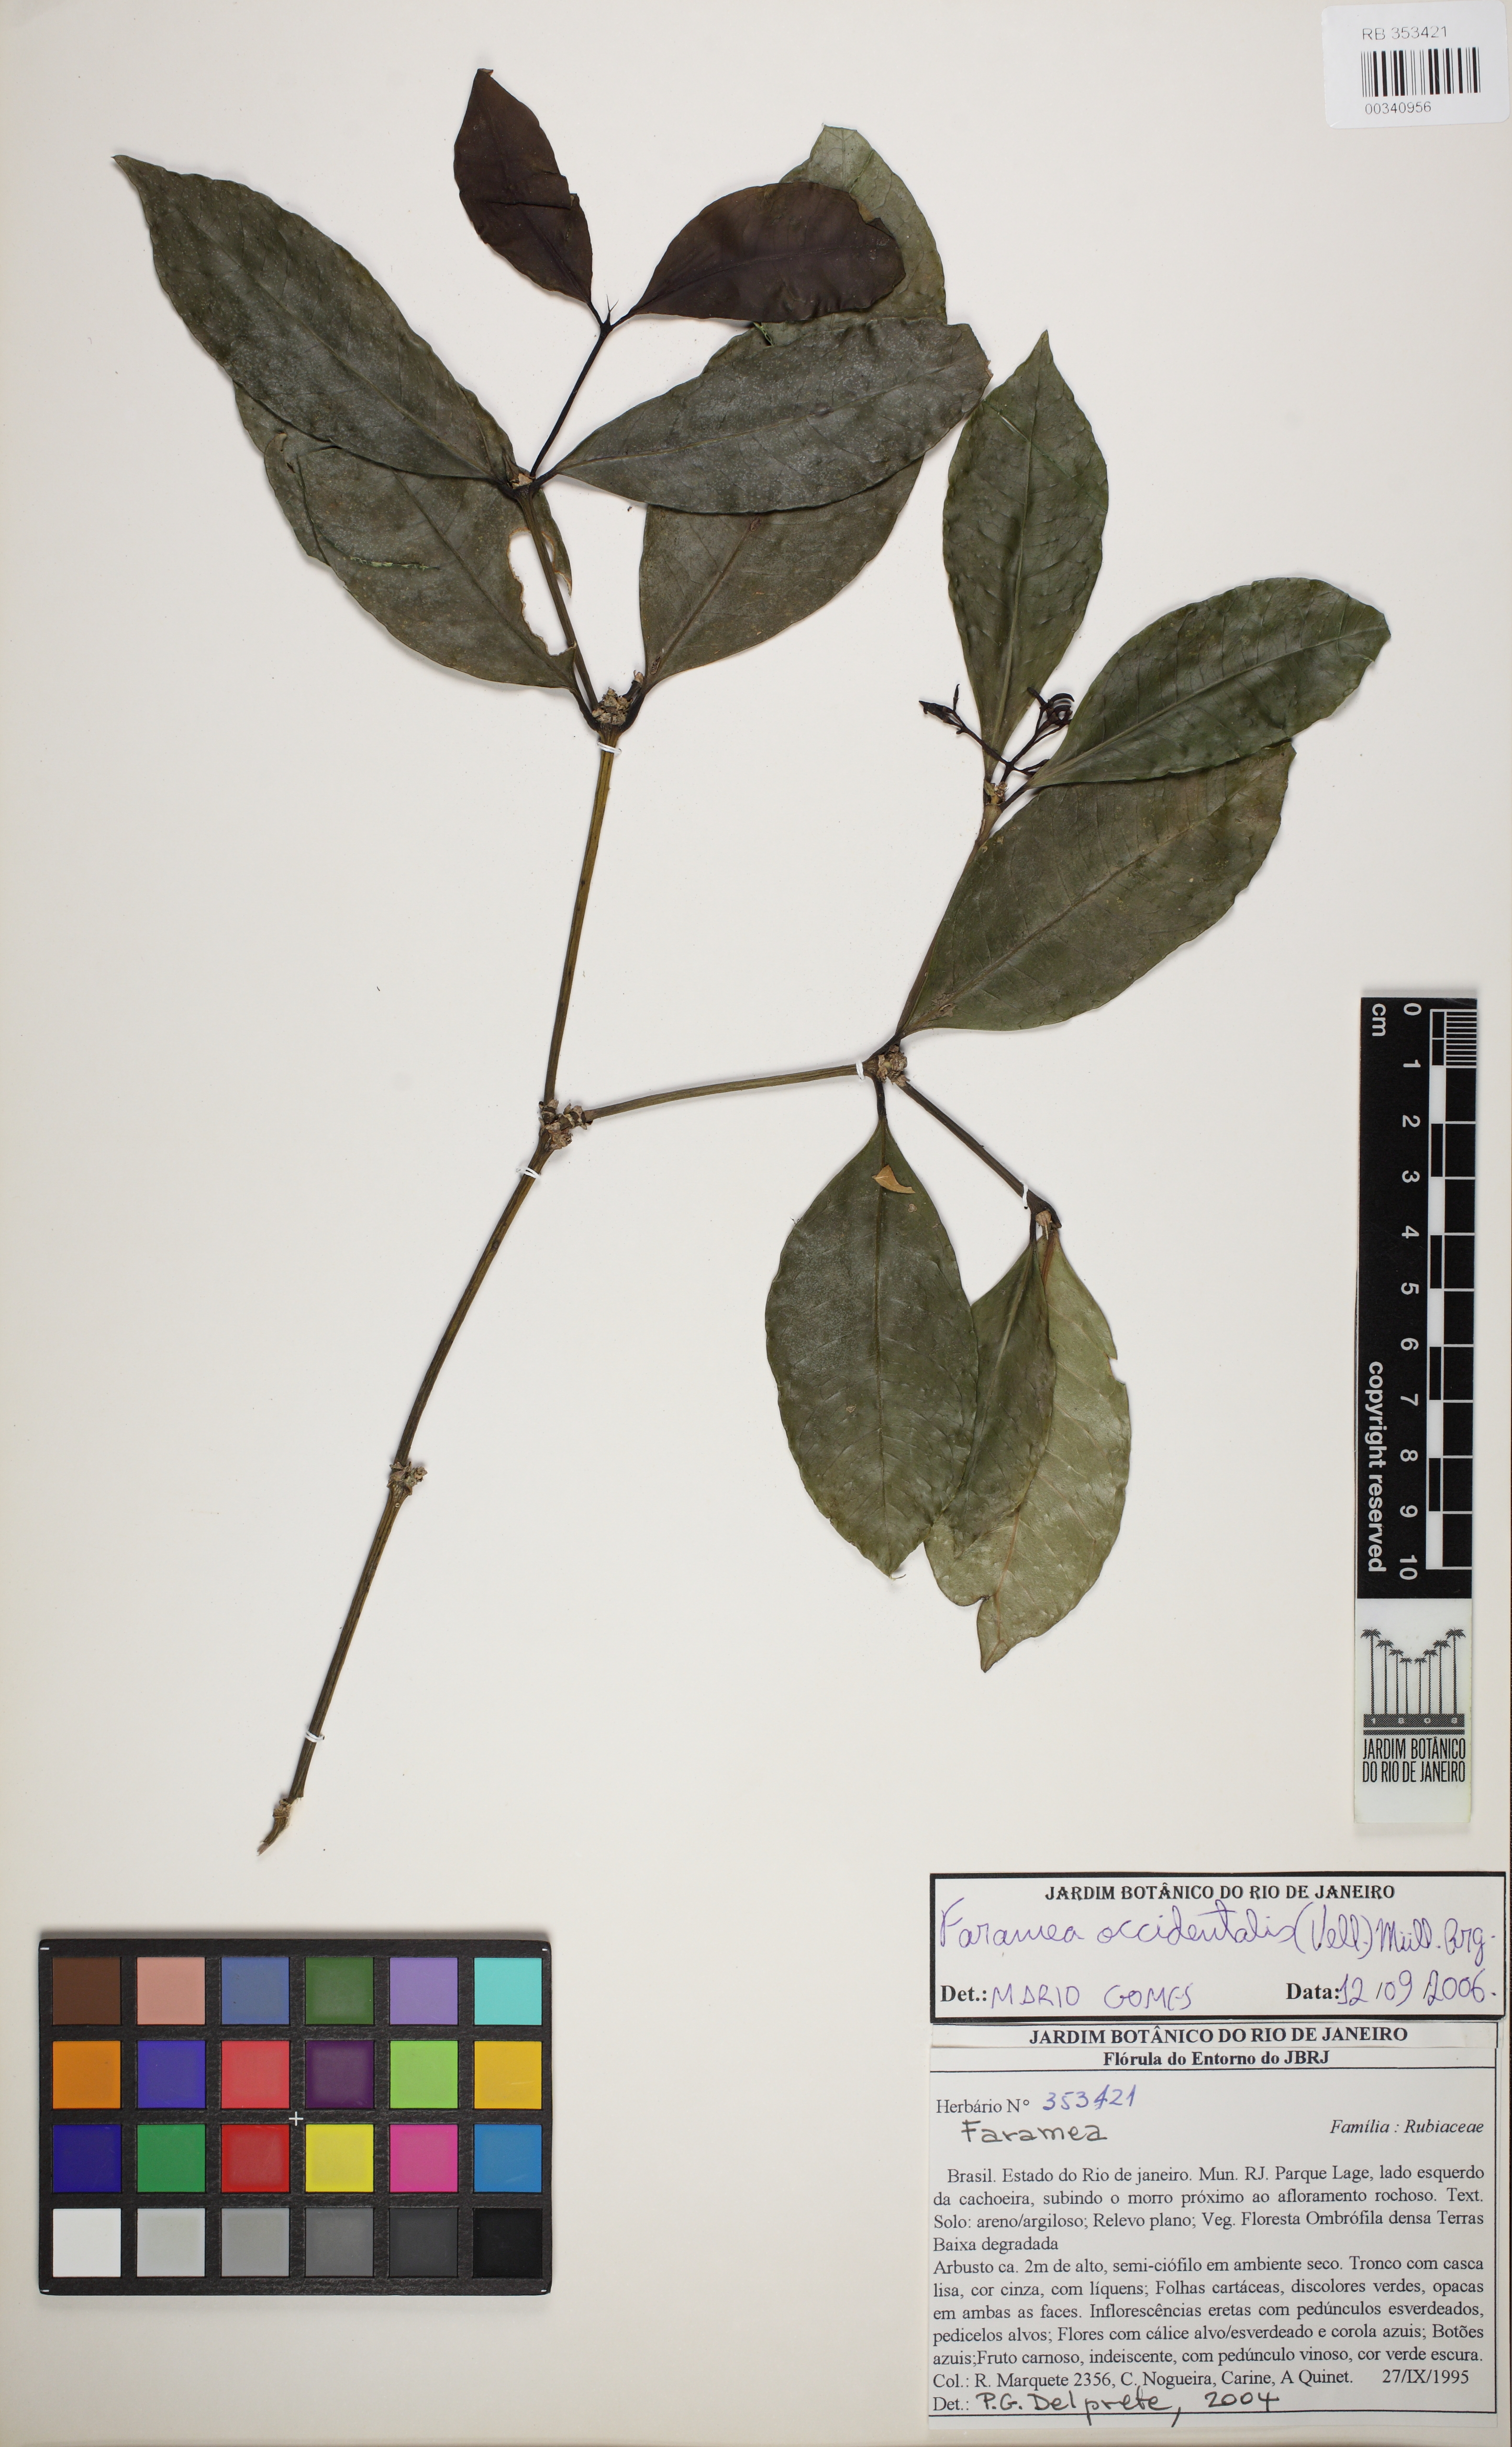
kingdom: Plantae
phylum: Tracheophyta
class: Magnoliopsida
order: Gentianales
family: Rubiaceae
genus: Faramea
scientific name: Faramea australis
